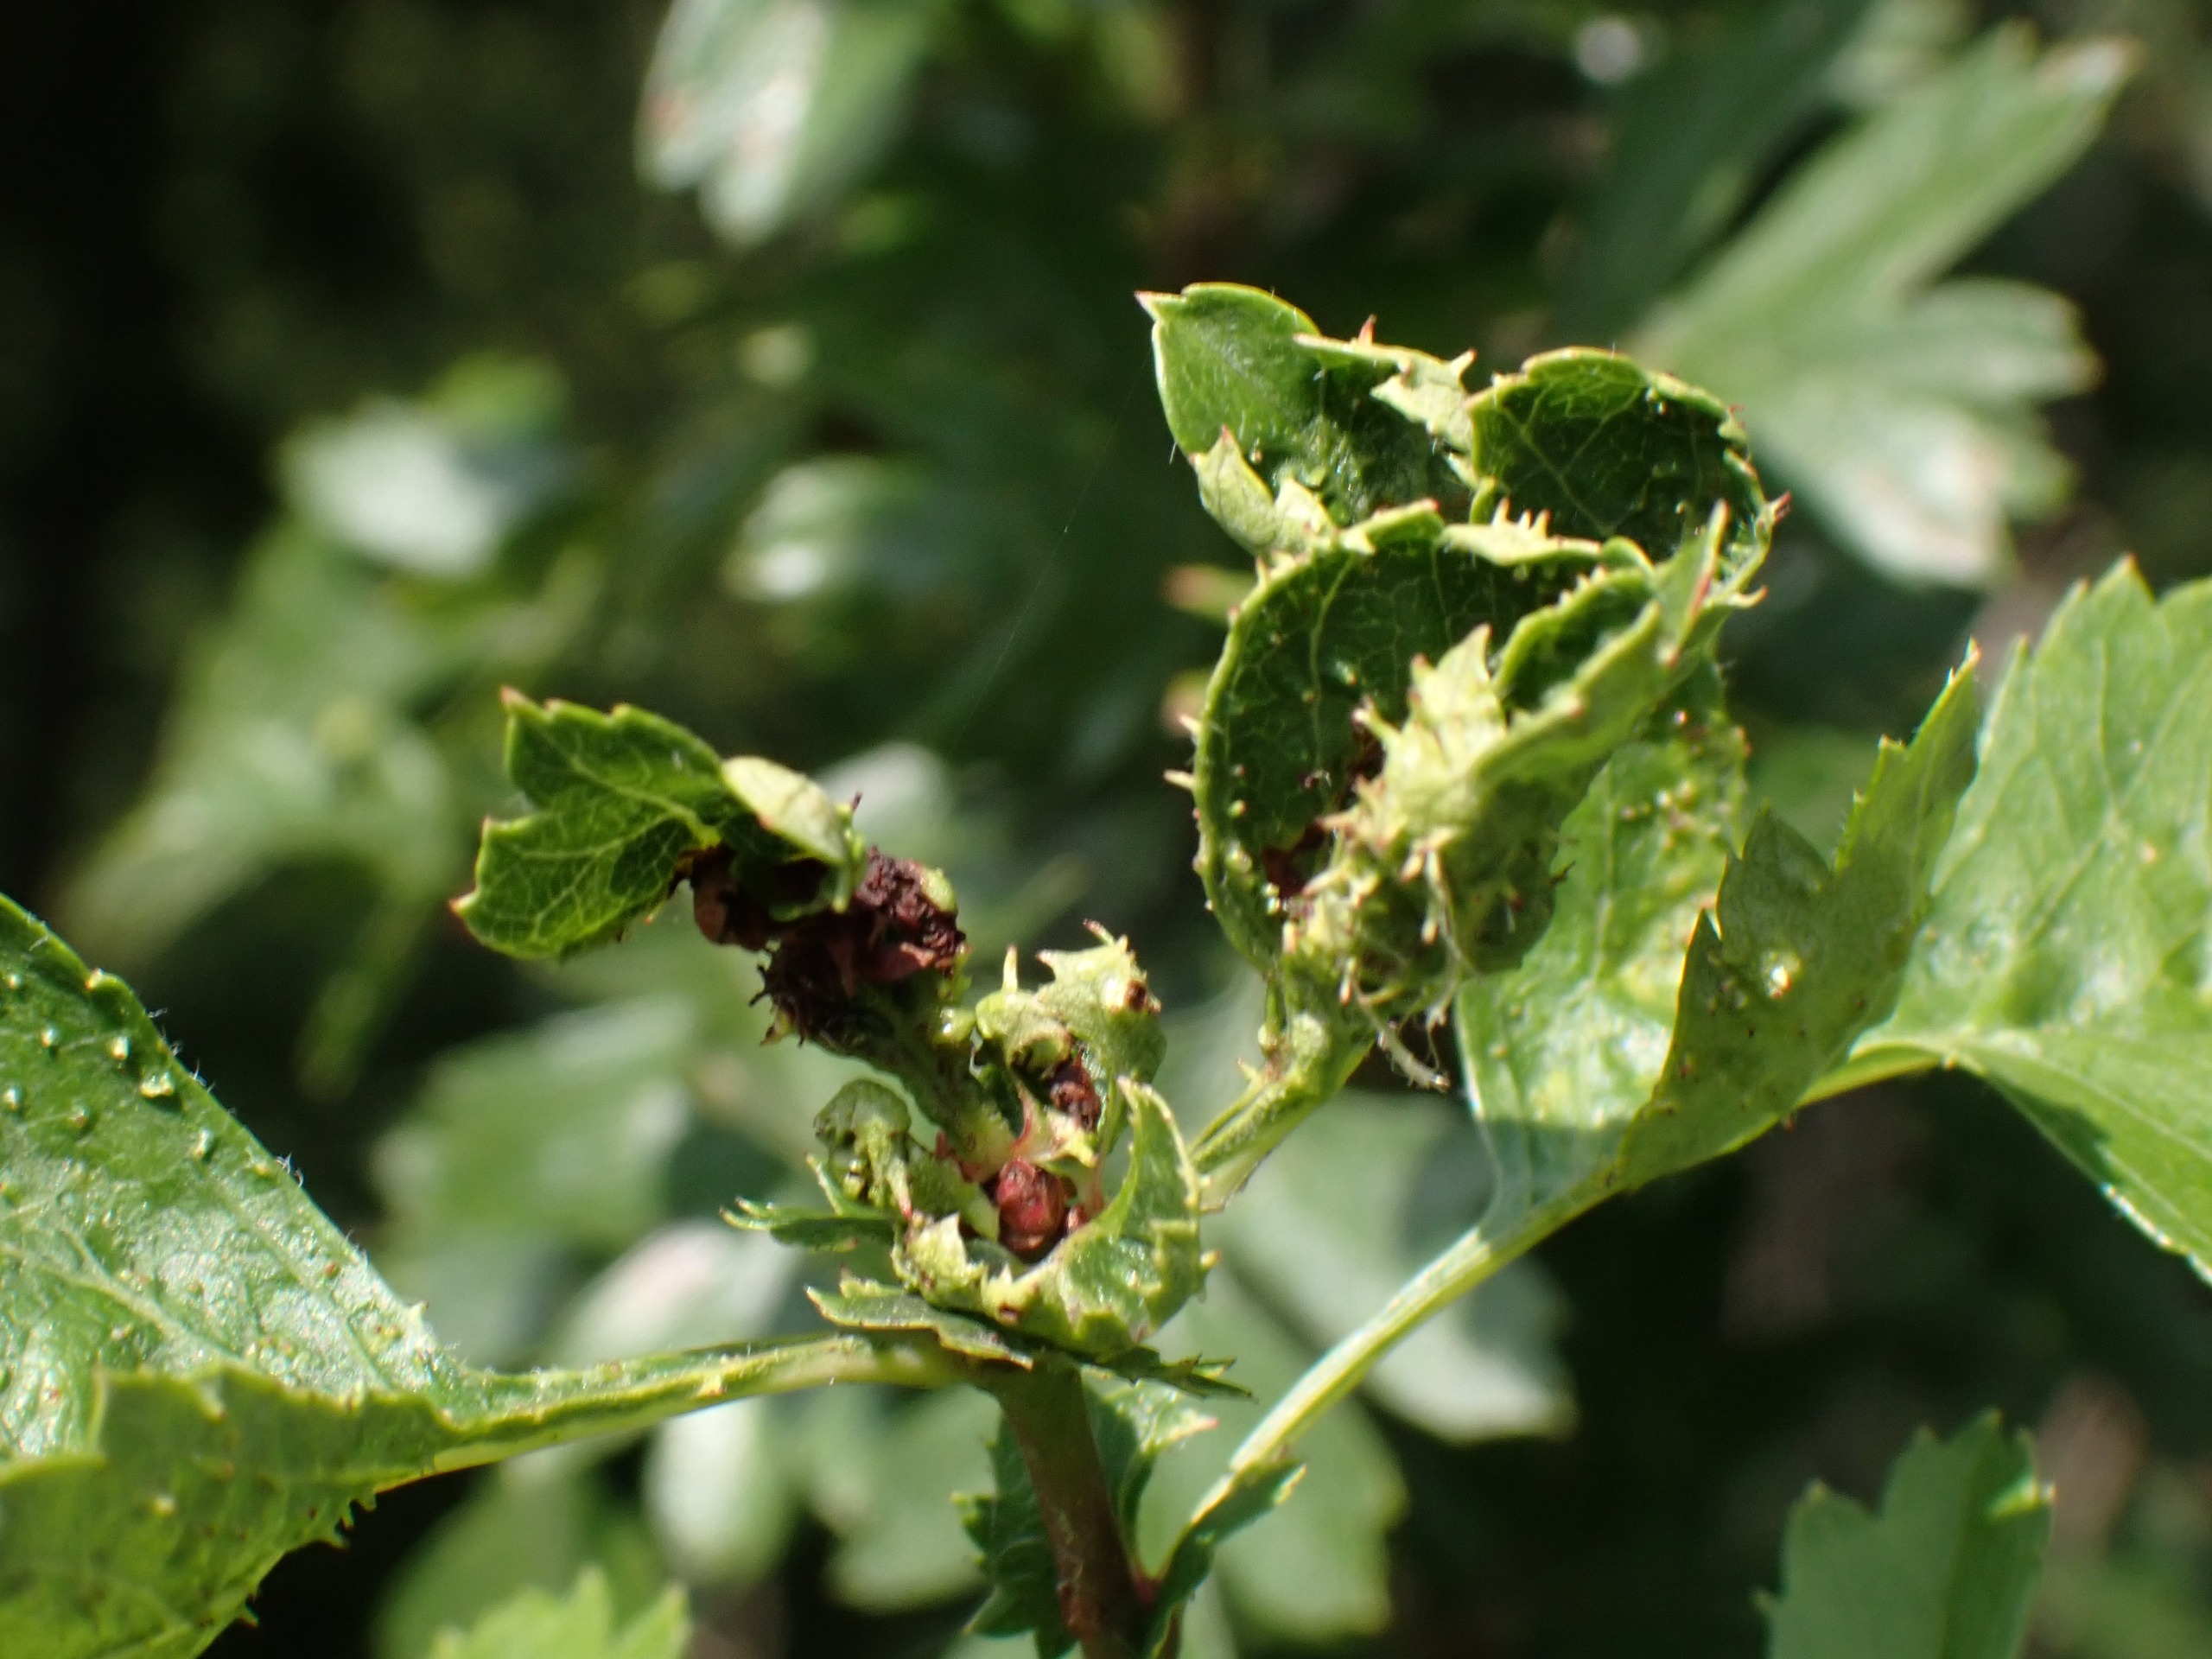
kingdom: Animalia
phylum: Arthropoda
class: Insecta
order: Diptera
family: Cecidomyiidae
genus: Dasineura
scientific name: Dasineura crataegi
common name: Tjørnerosetgalmyg
